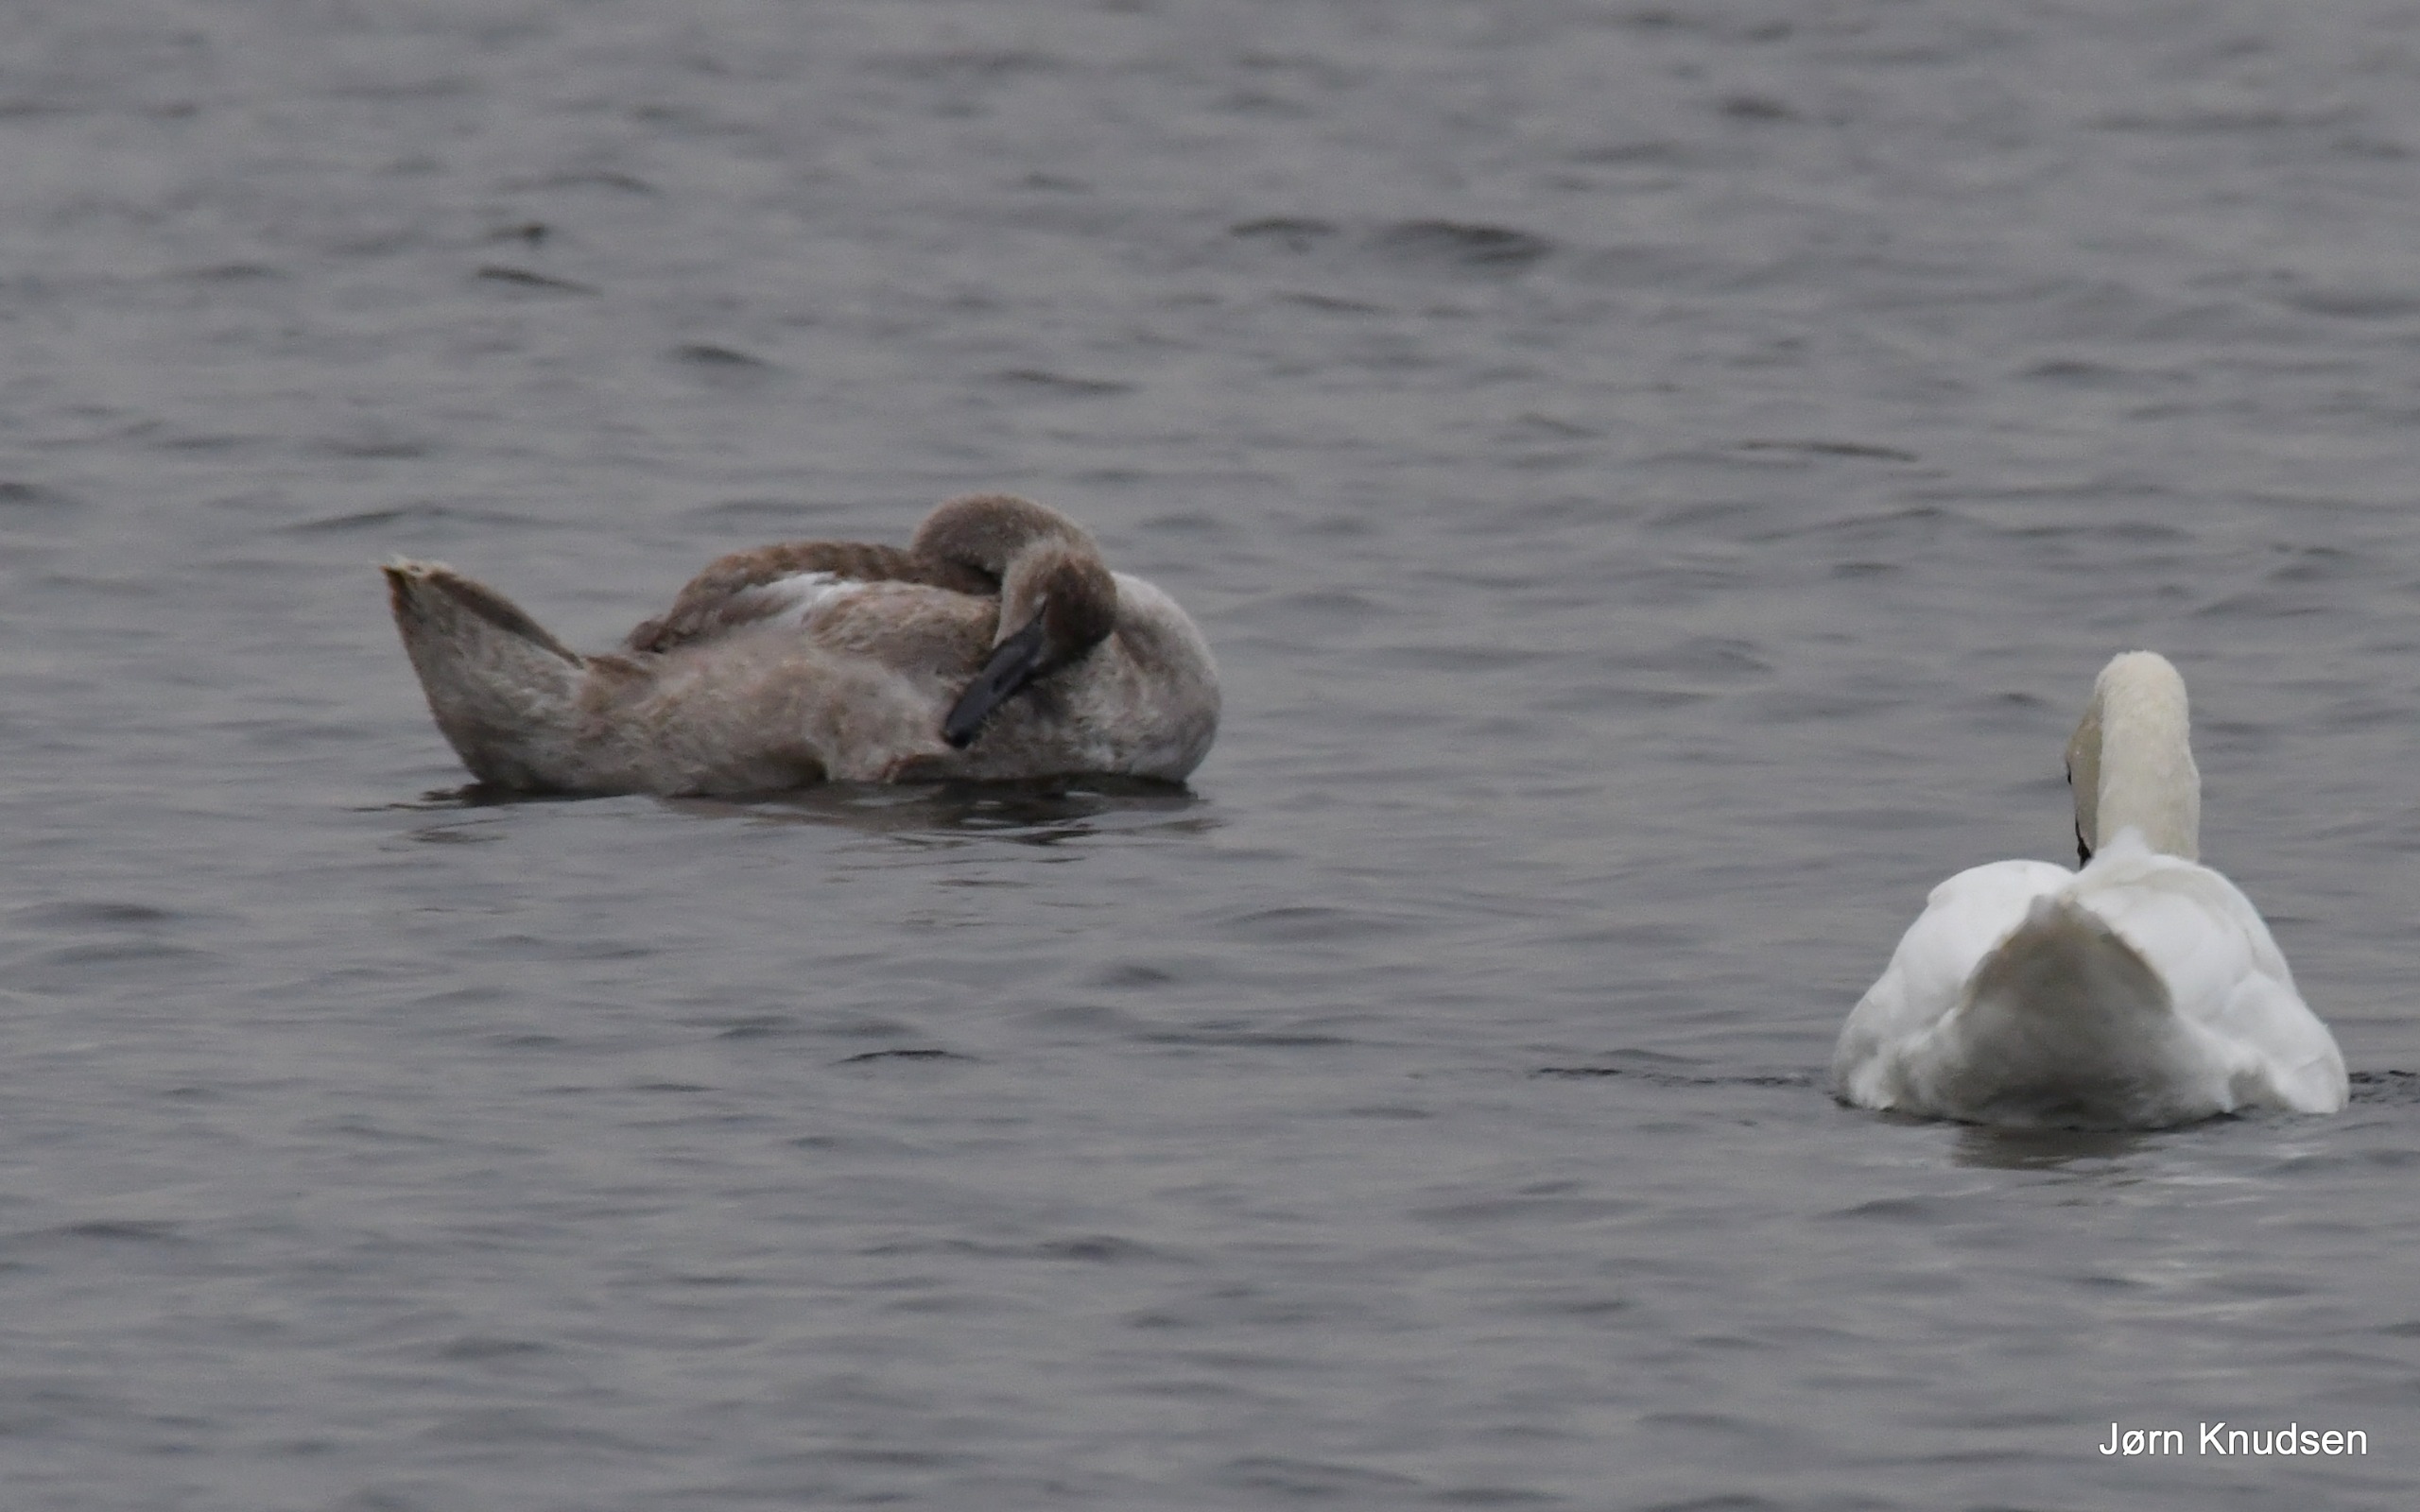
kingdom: Animalia
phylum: Chordata
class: Aves
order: Anseriformes
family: Anatidae
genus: Cygnus
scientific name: Cygnus olor
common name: Knopsvane
